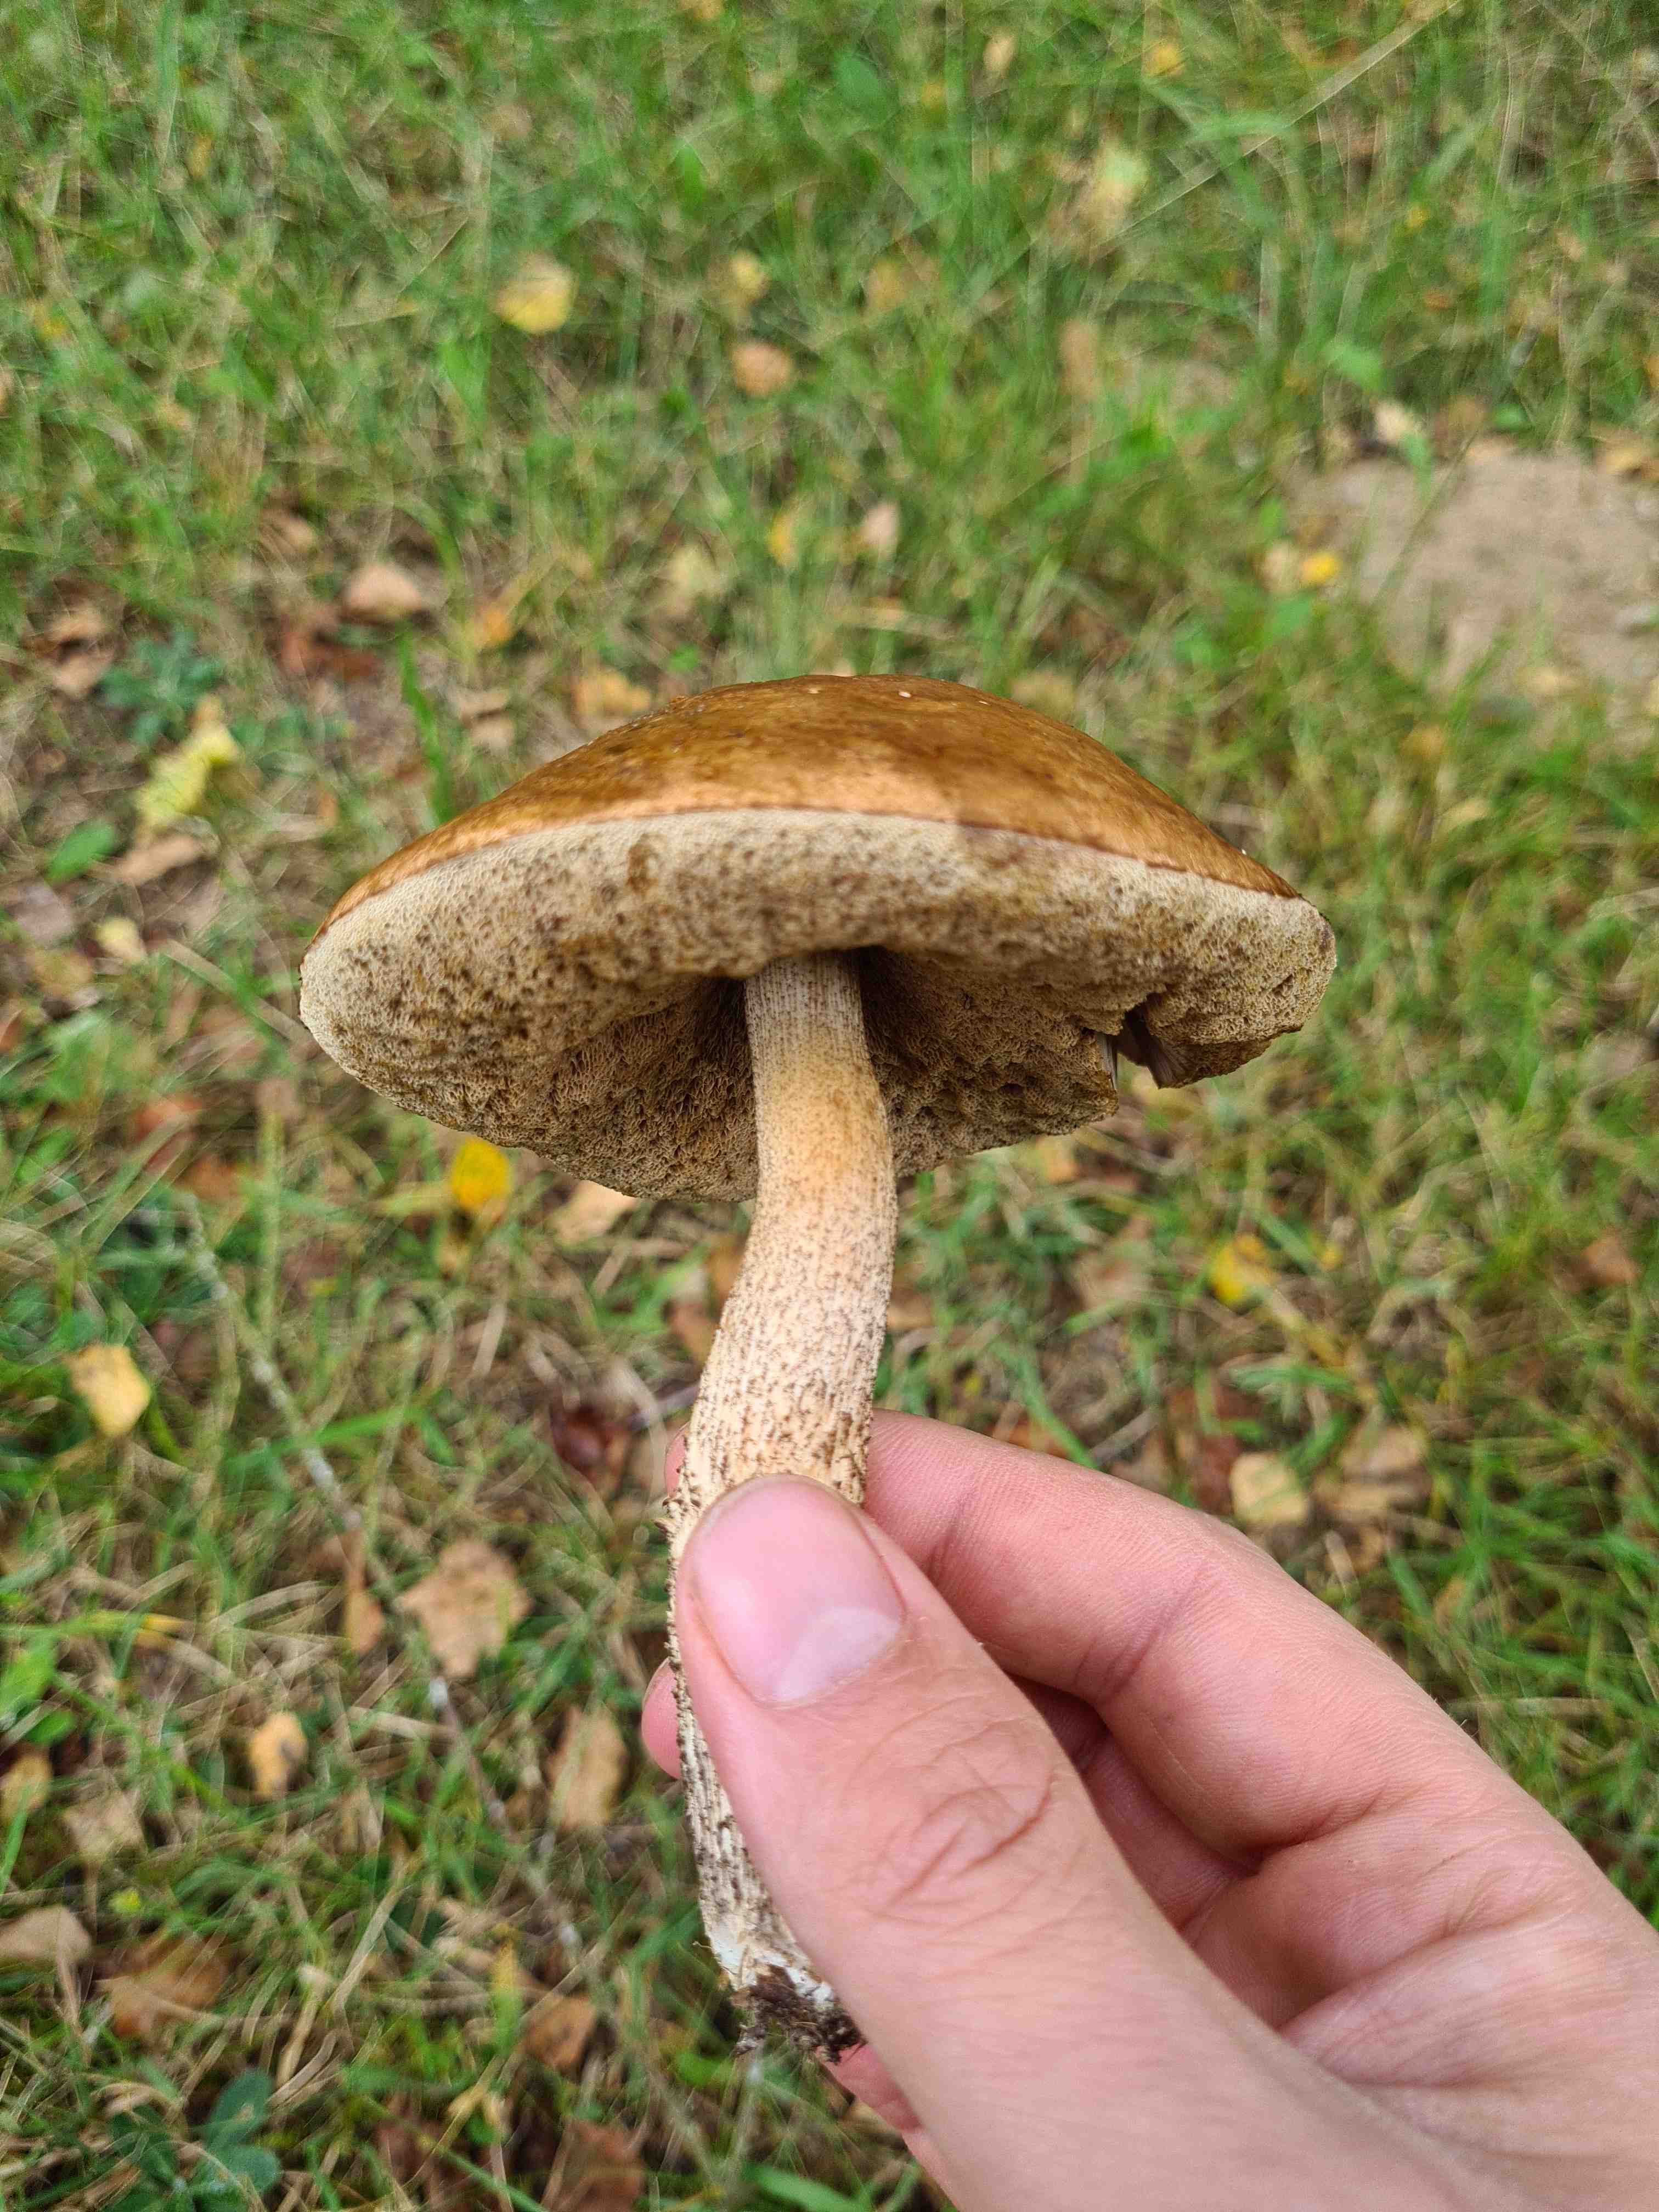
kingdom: Fungi
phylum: Basidiomycota
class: Agaricomycetes
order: Boletales
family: Boletaceae
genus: Leccinum
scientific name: Leccinum
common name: skælrørhat
